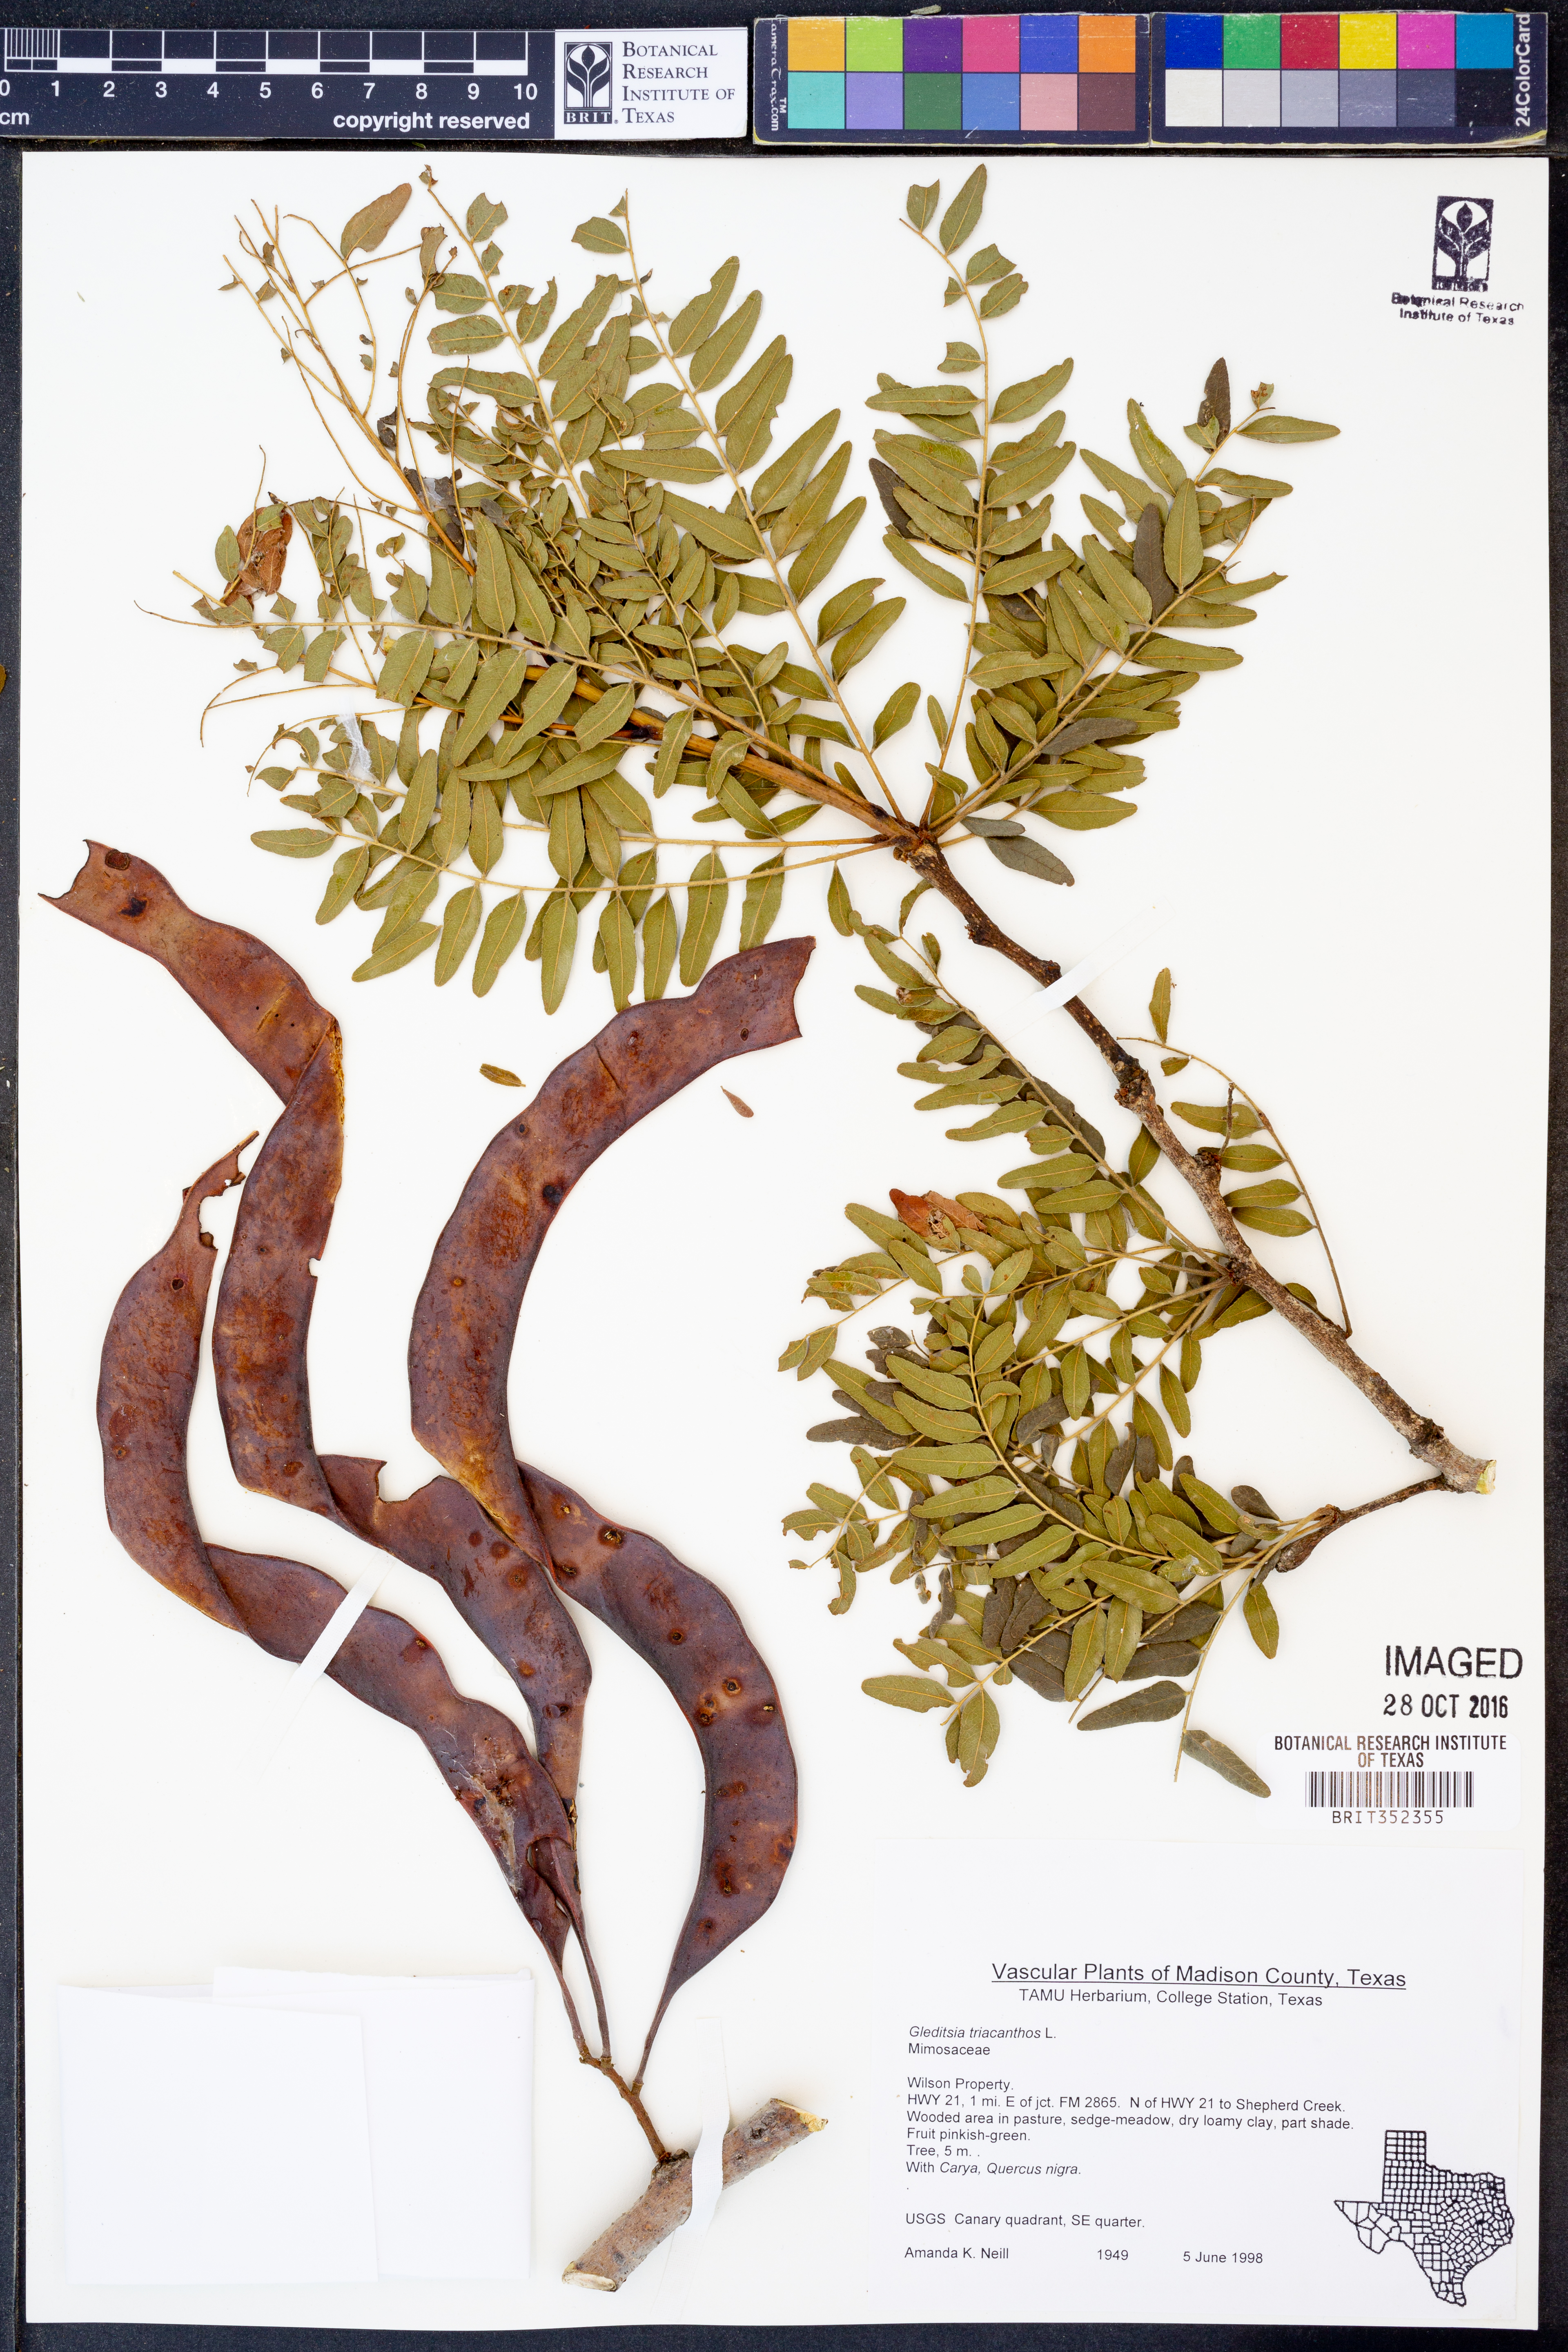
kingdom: Plantae
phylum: Tracheophyta
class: Magnoliopsida
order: Fabales
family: Fabaceae
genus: Gleditsia
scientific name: Gleditsia triacanthos
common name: Common honeylocust
